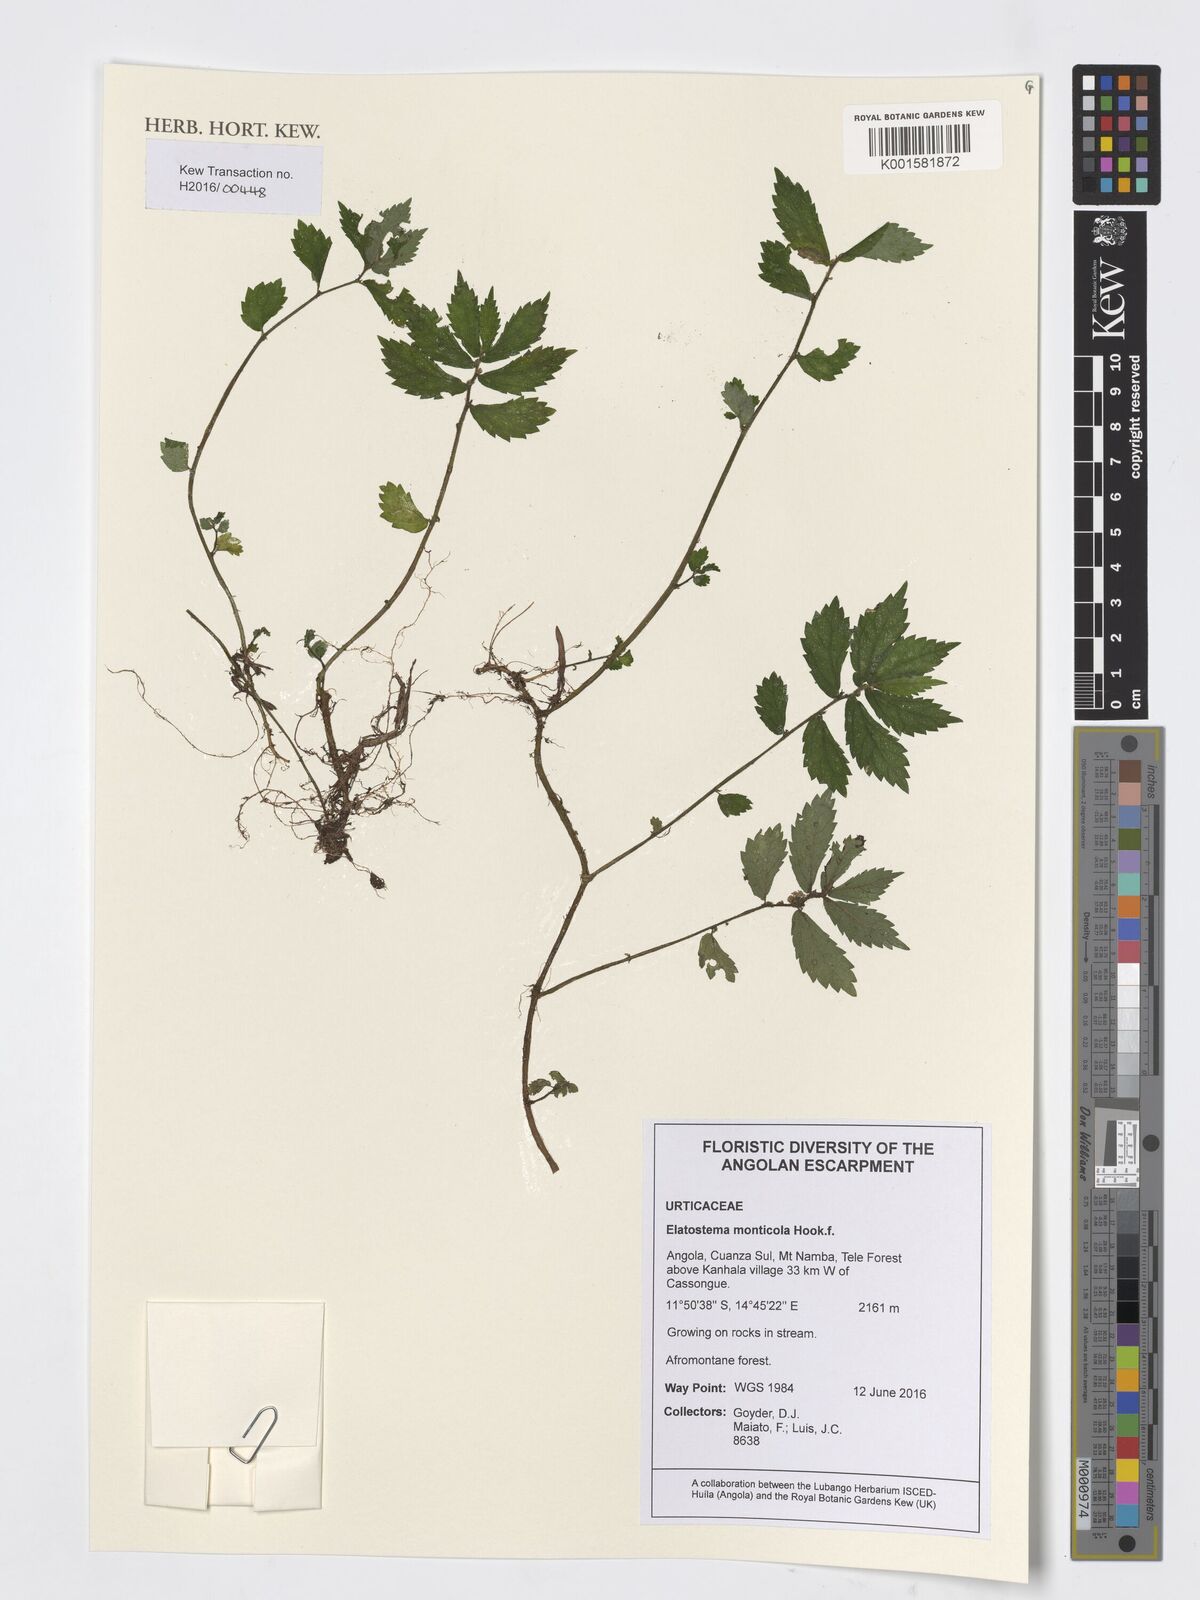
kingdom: Plantae
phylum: Tracheophyta
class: Magnoliopsida
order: Rosales
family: Urticaceae
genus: Elatostema
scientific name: Elatostema monticola
